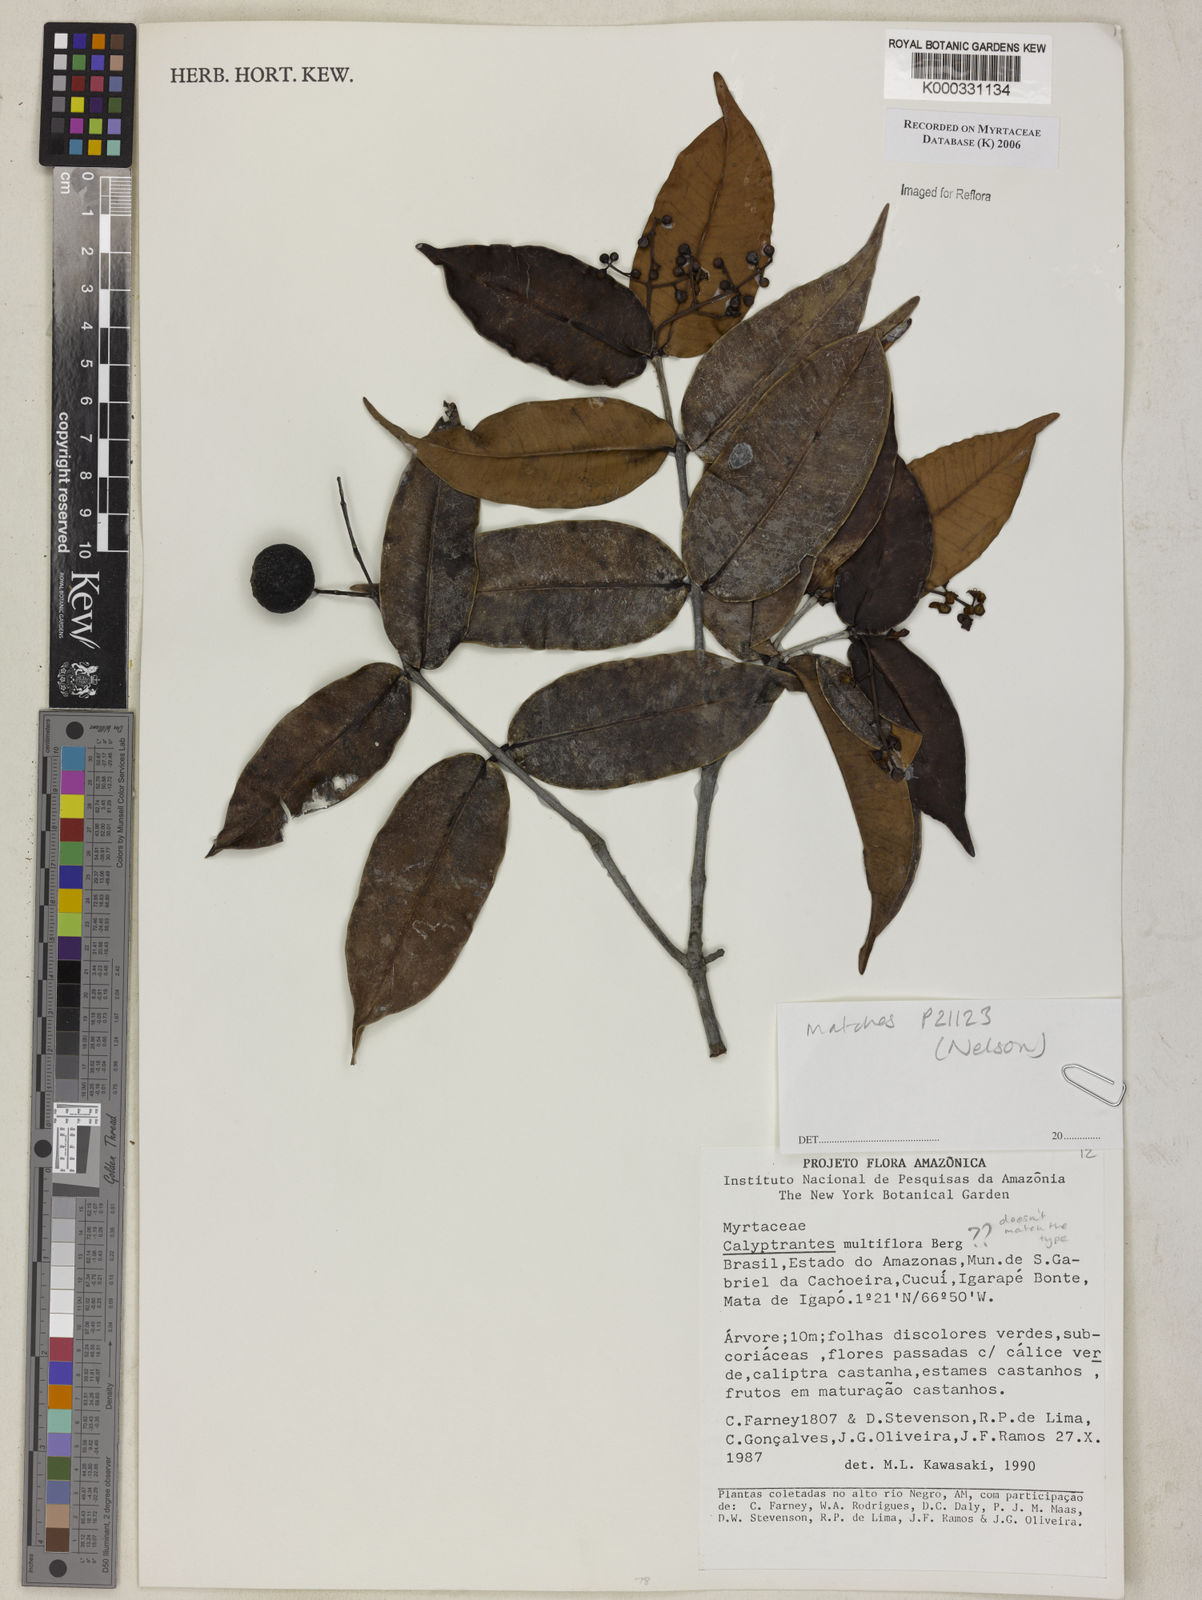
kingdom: Plantae
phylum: Tracheophyta
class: Magnoliopsida
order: Myrtales
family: Myrtaceae
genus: Myrcia
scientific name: Myrcia aulomyrcioides
